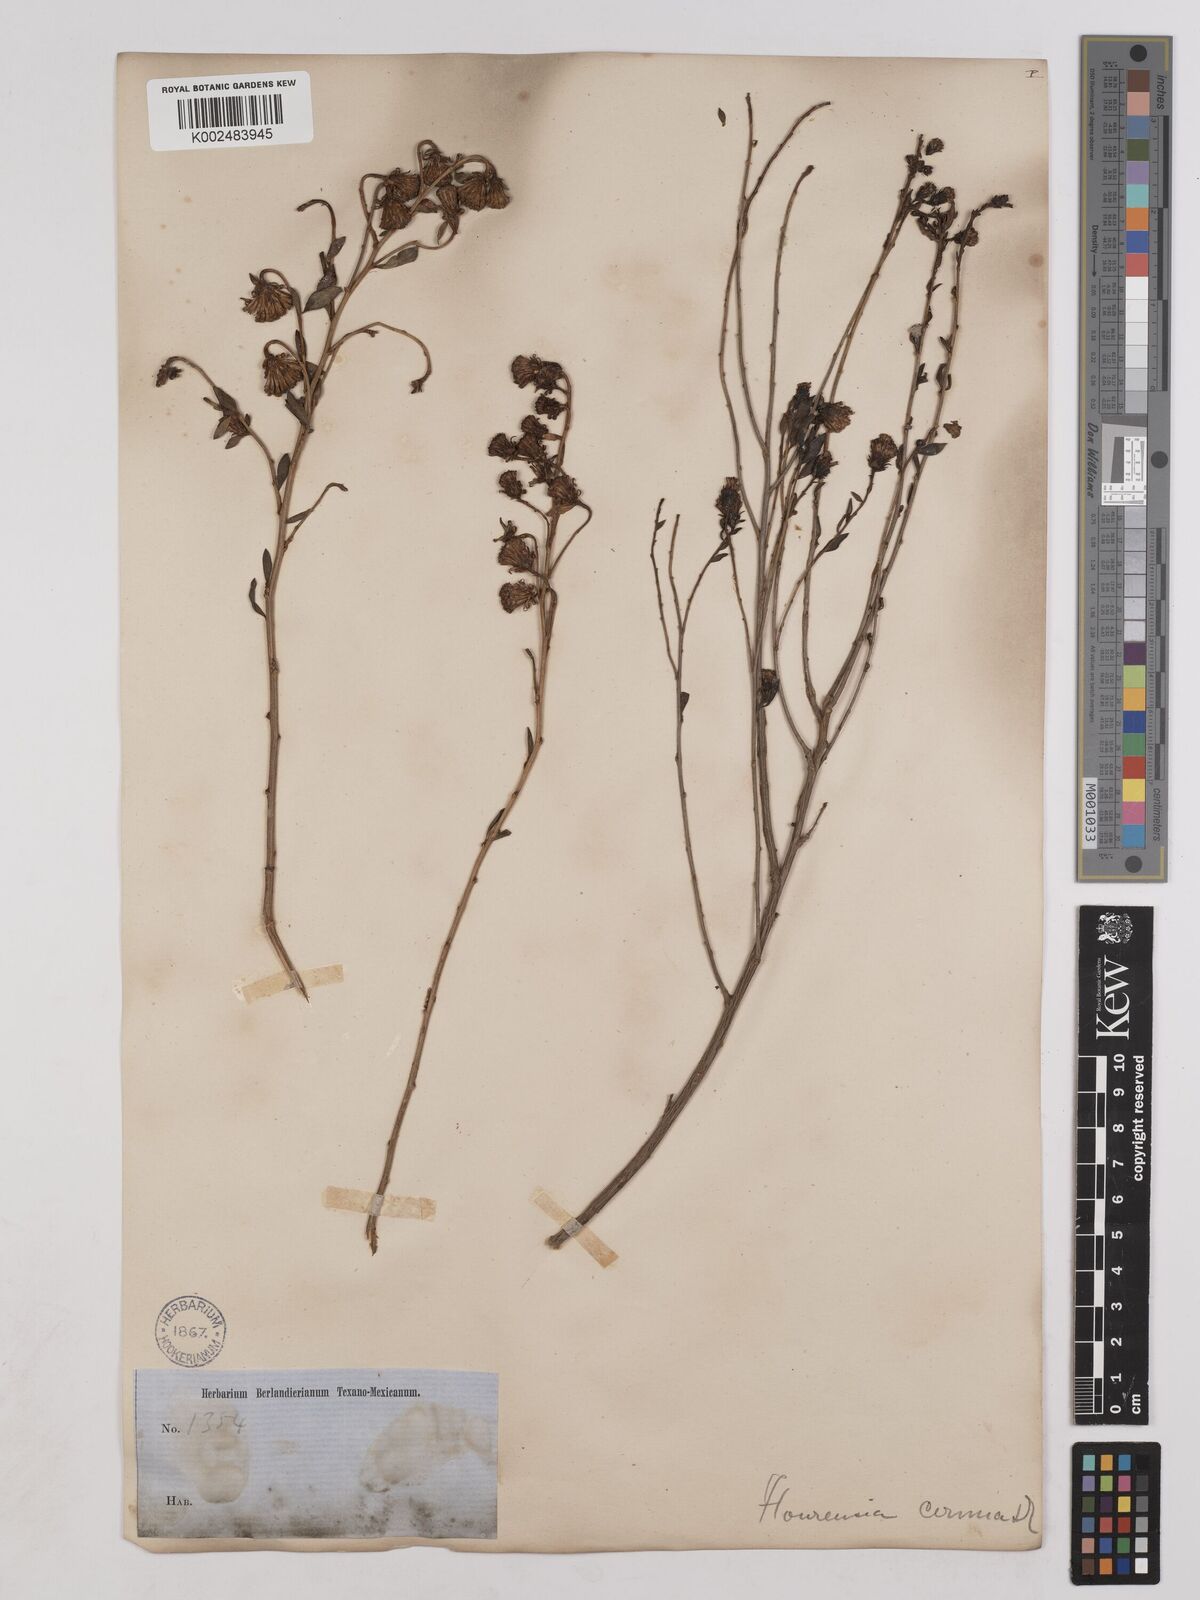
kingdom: Plantae
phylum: Tracheophyta
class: Magnoliopsida
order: Asterales
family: Asteraceae
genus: Flourensia
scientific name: Flourensia cernua
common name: Varnishbush
